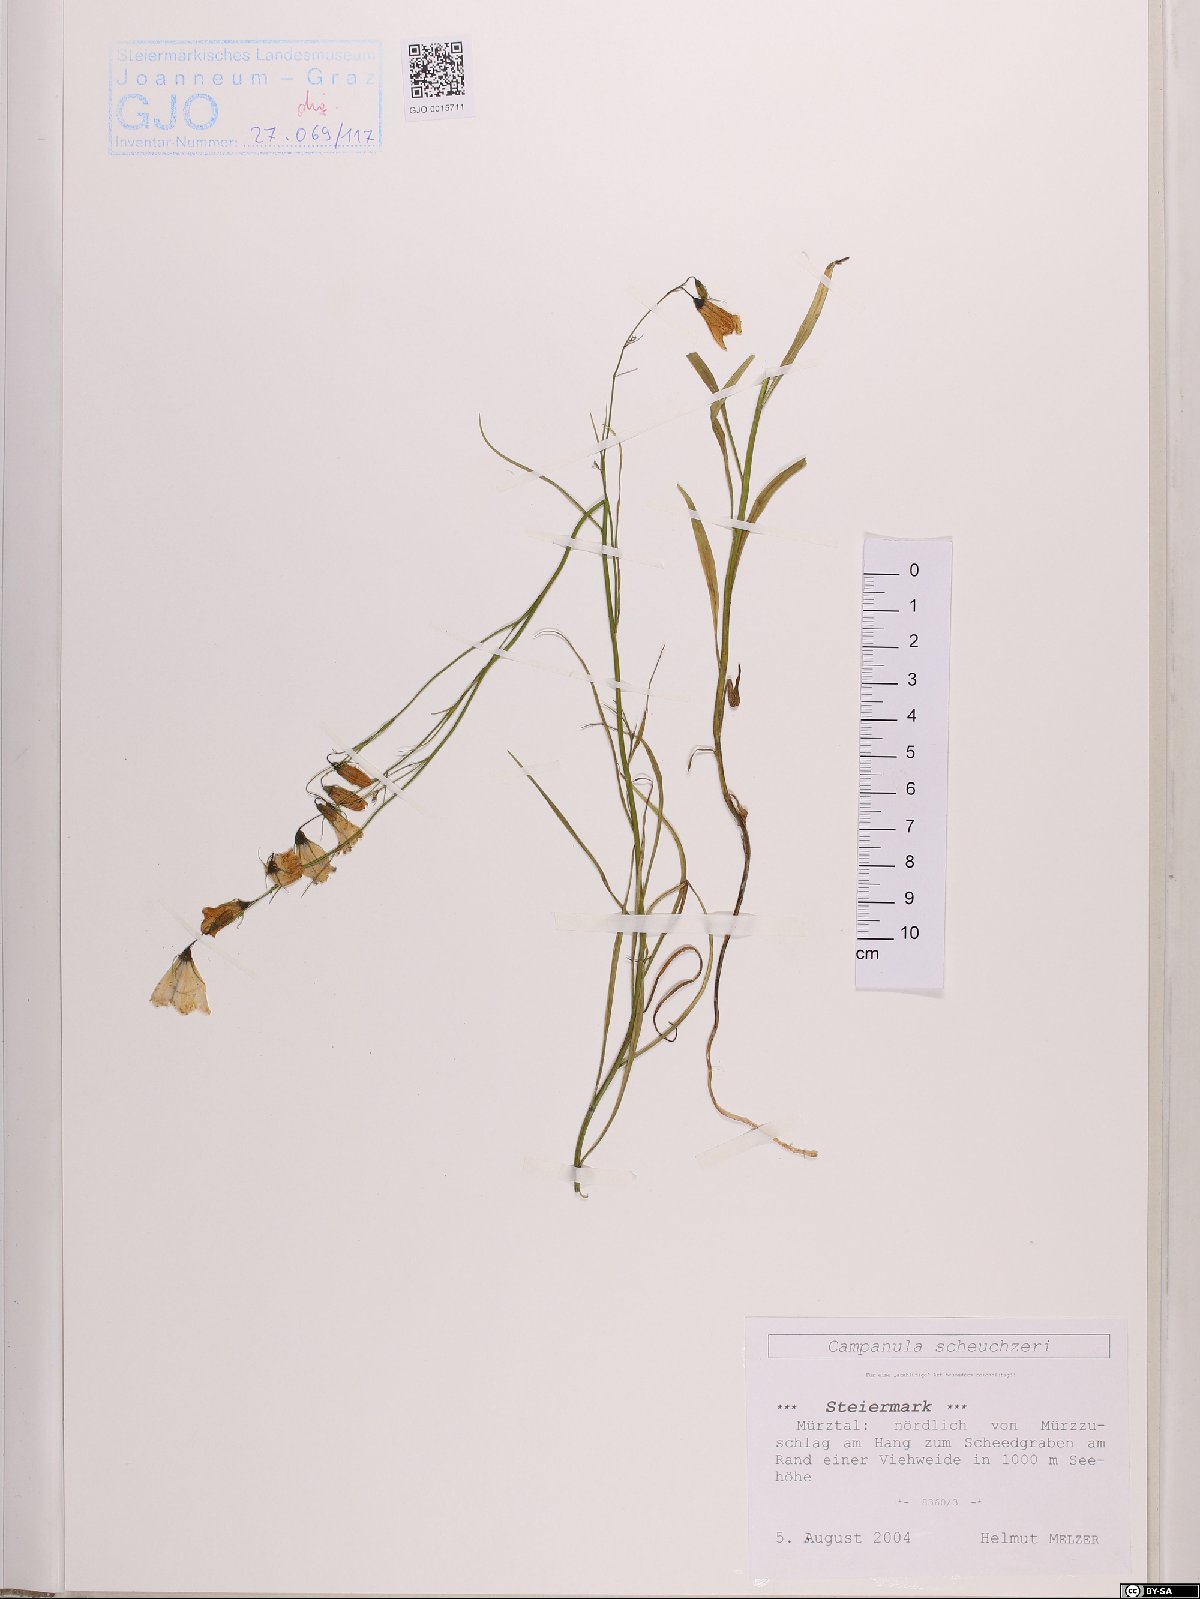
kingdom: Plantae
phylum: Tracheophyta
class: Magnoliopsida
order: Asterales
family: Campanulaceae
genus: Campanula
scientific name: Campanula scheuchzeri
